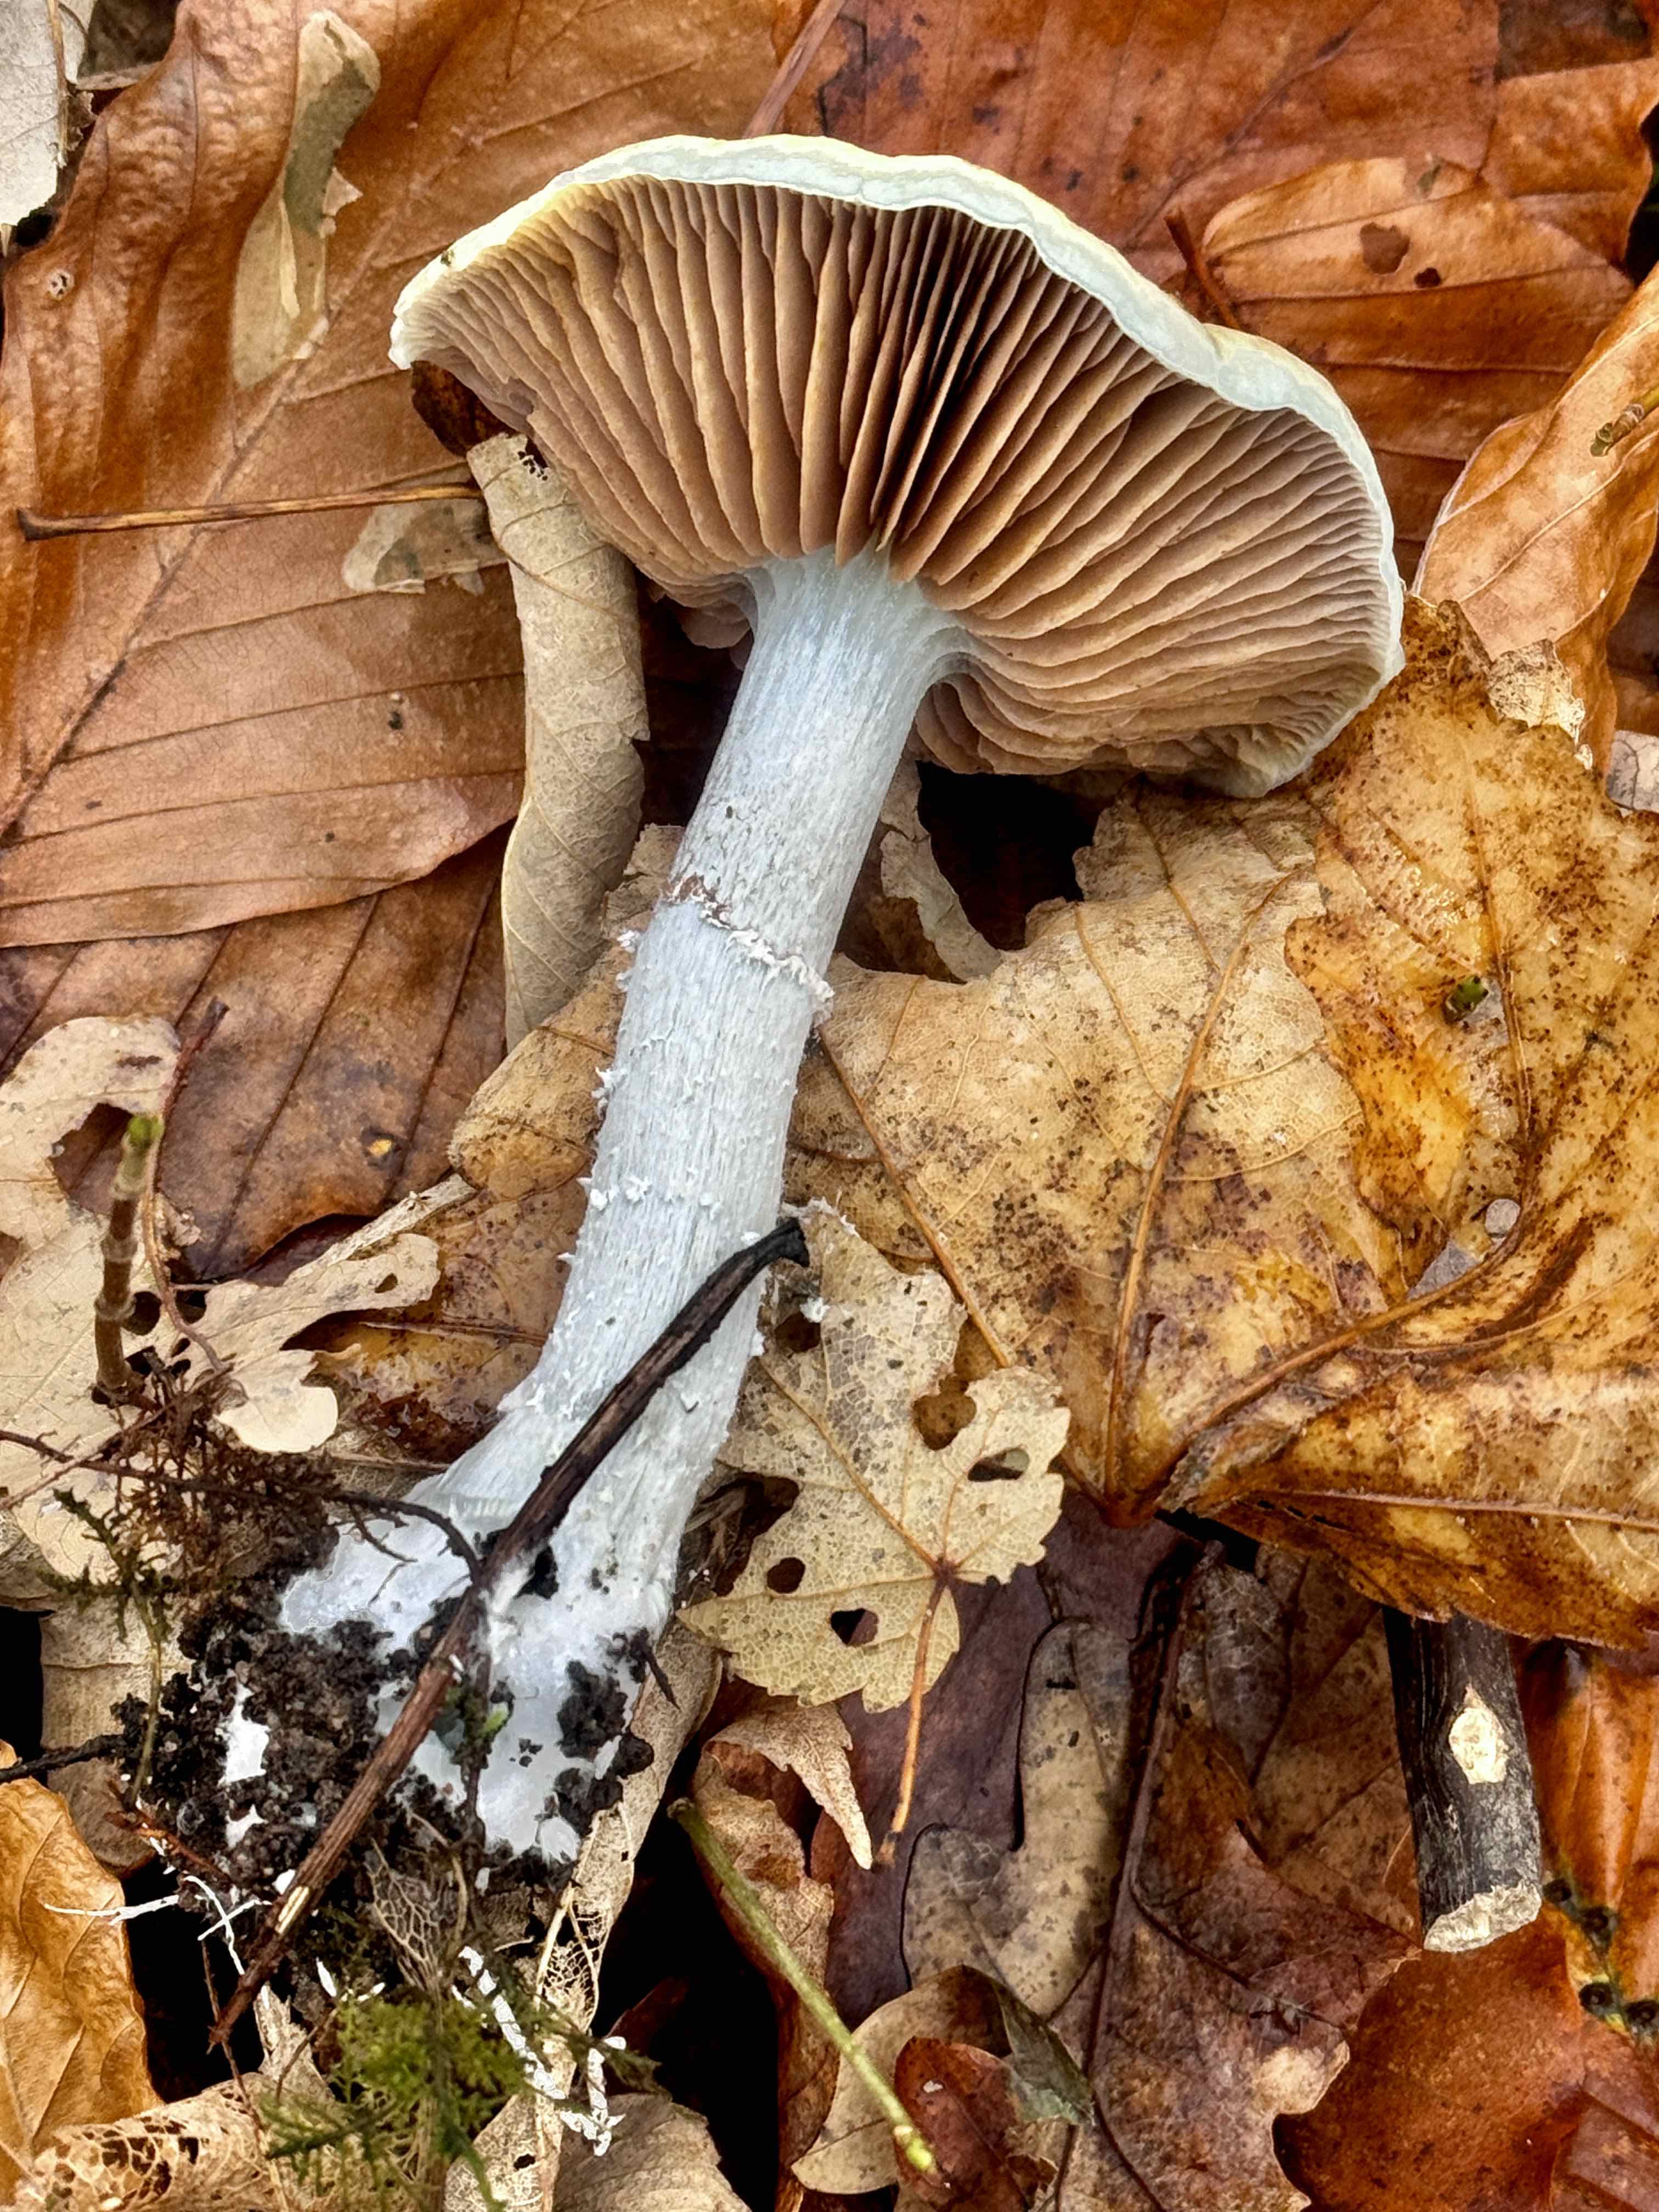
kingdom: Fungi
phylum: Basidiomycota
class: Agaricomycetes
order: Agaricales
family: Strophariaceae
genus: Stropharia
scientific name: Stropharia cyanea
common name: blågrøn bredblad
